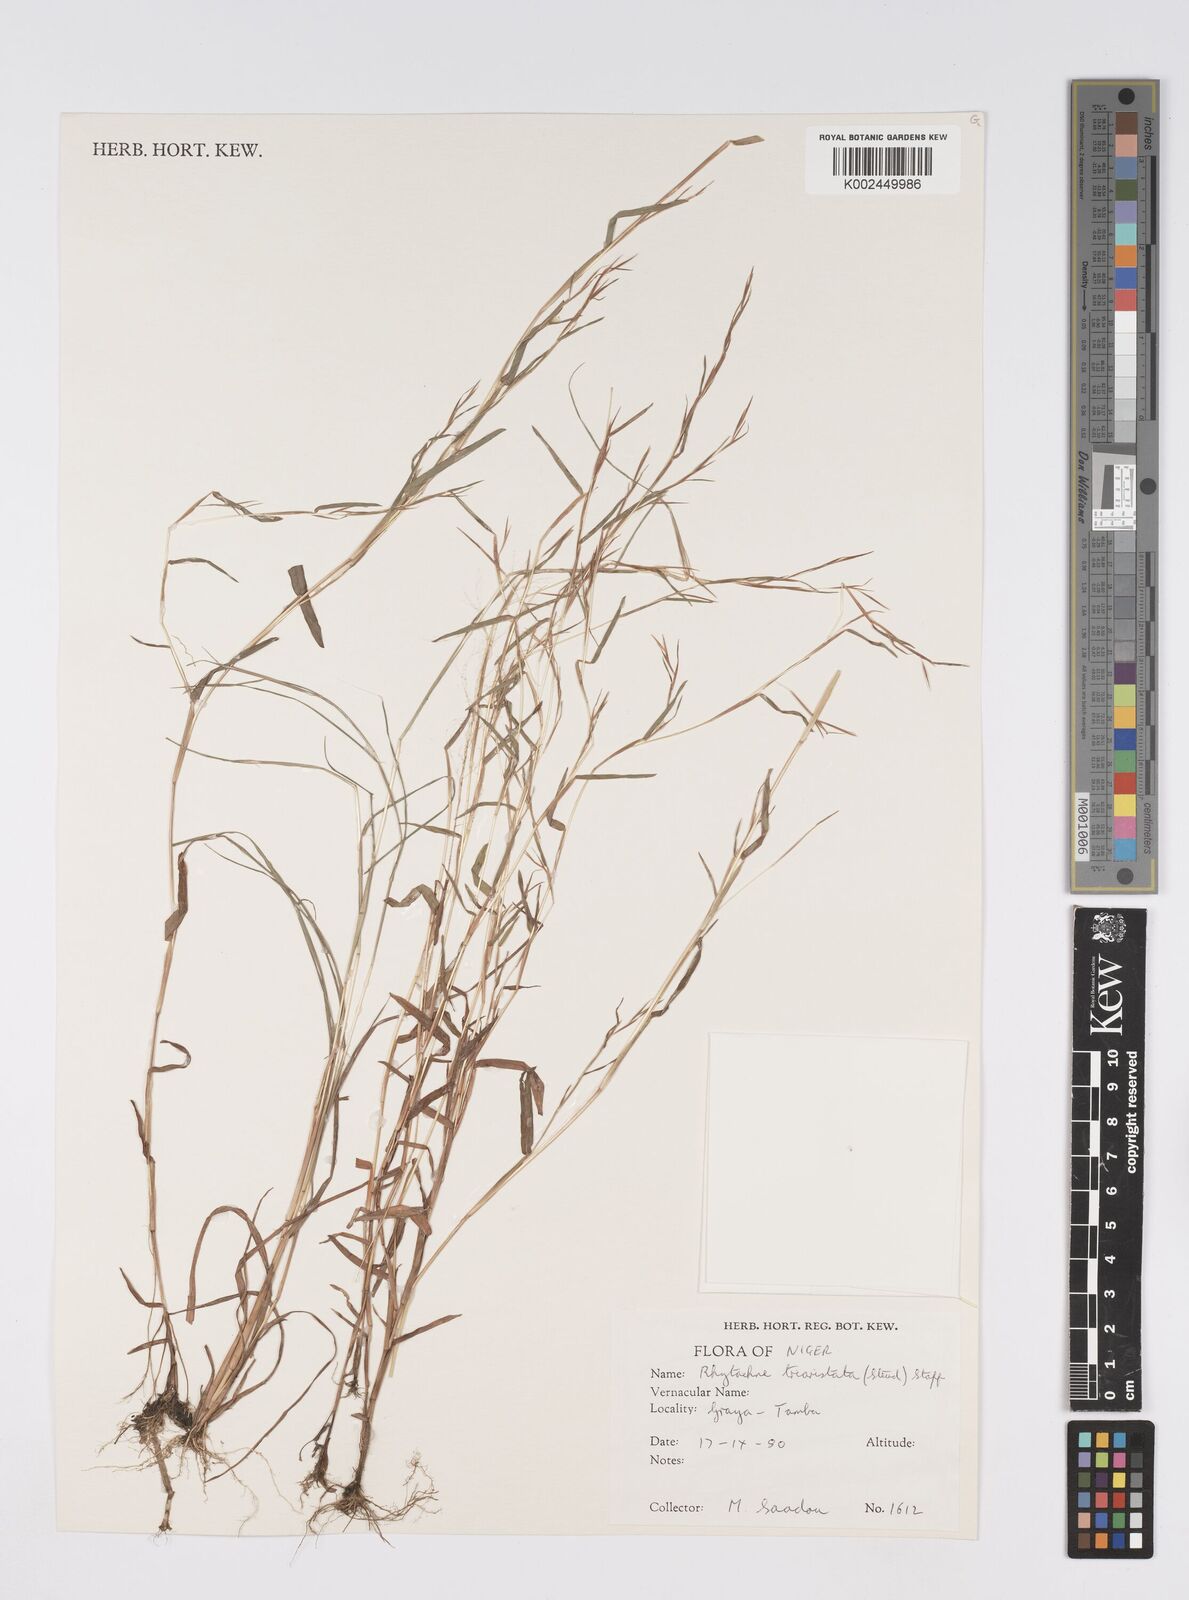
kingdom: Plantae
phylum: Tracheophyta
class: Liliopsida
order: Poales
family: Poaceae
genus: Rhytachne
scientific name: Rhytachne triaristata
